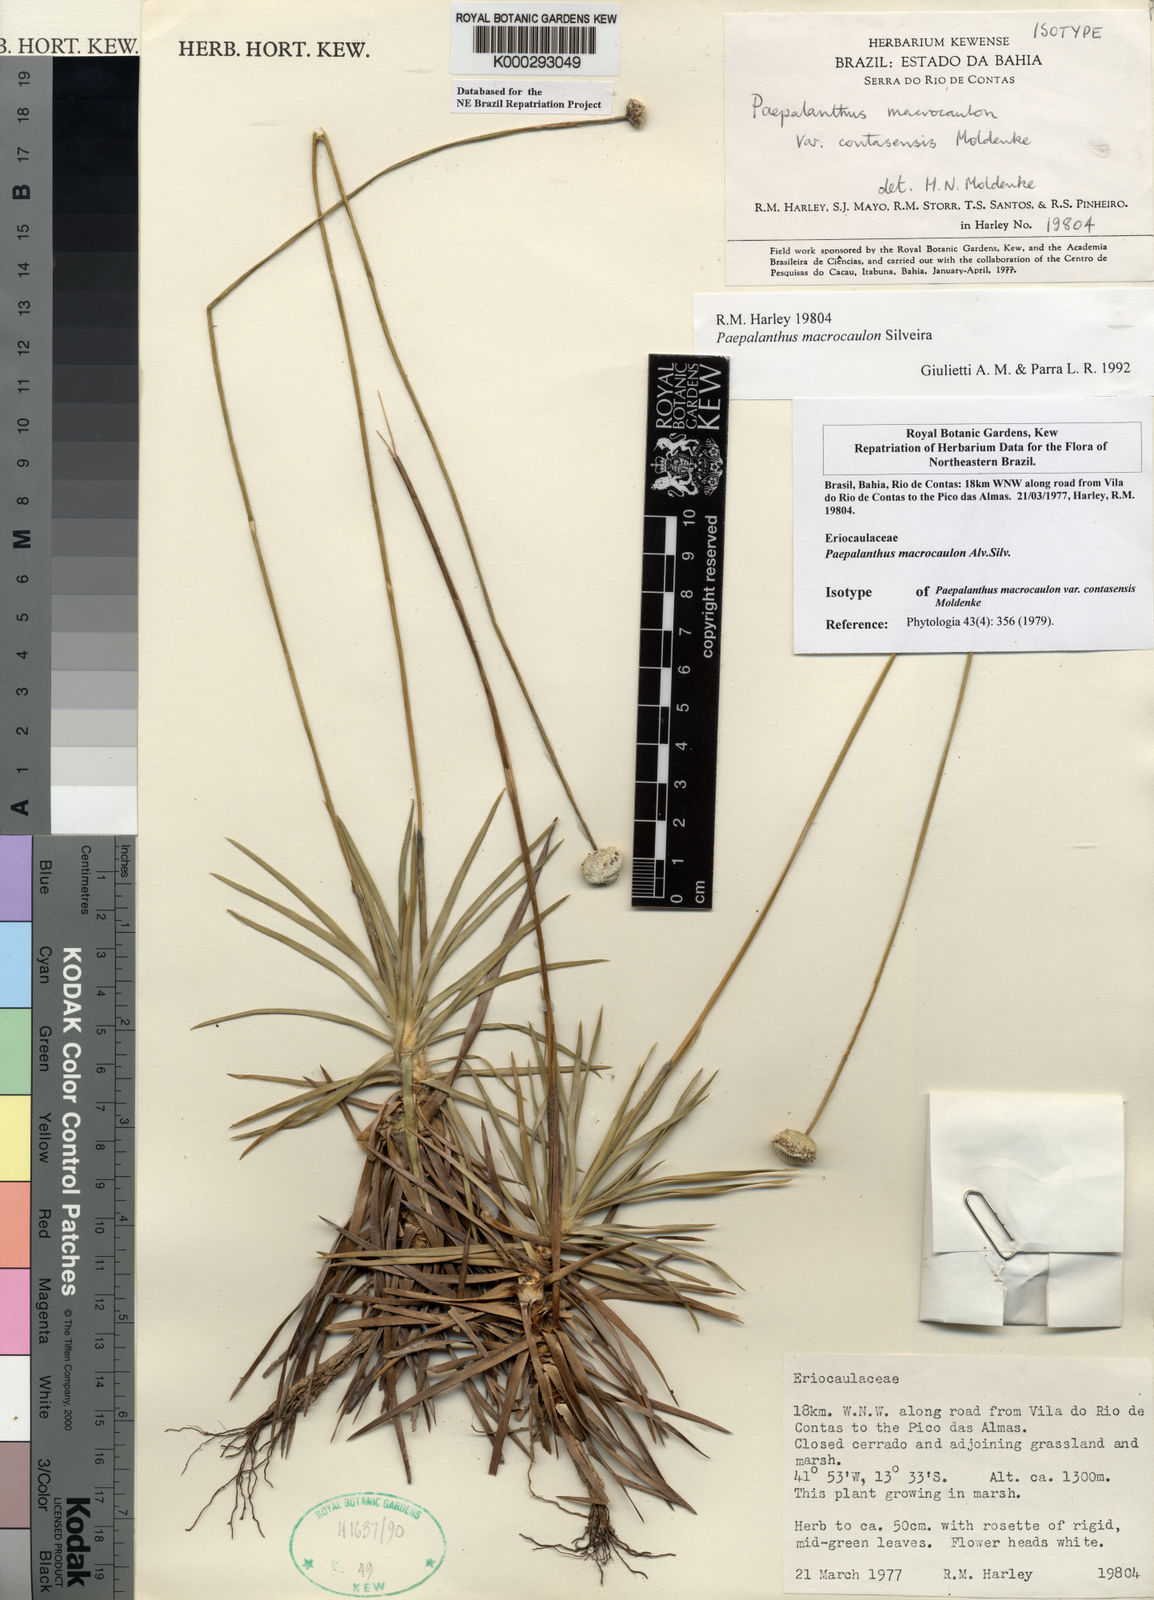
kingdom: Plantae
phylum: Tracheophyta
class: Liliopsida
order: Poales
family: Eriocaulaceae
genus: Paepalanthus
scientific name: Paepalanthus macrocaulon
